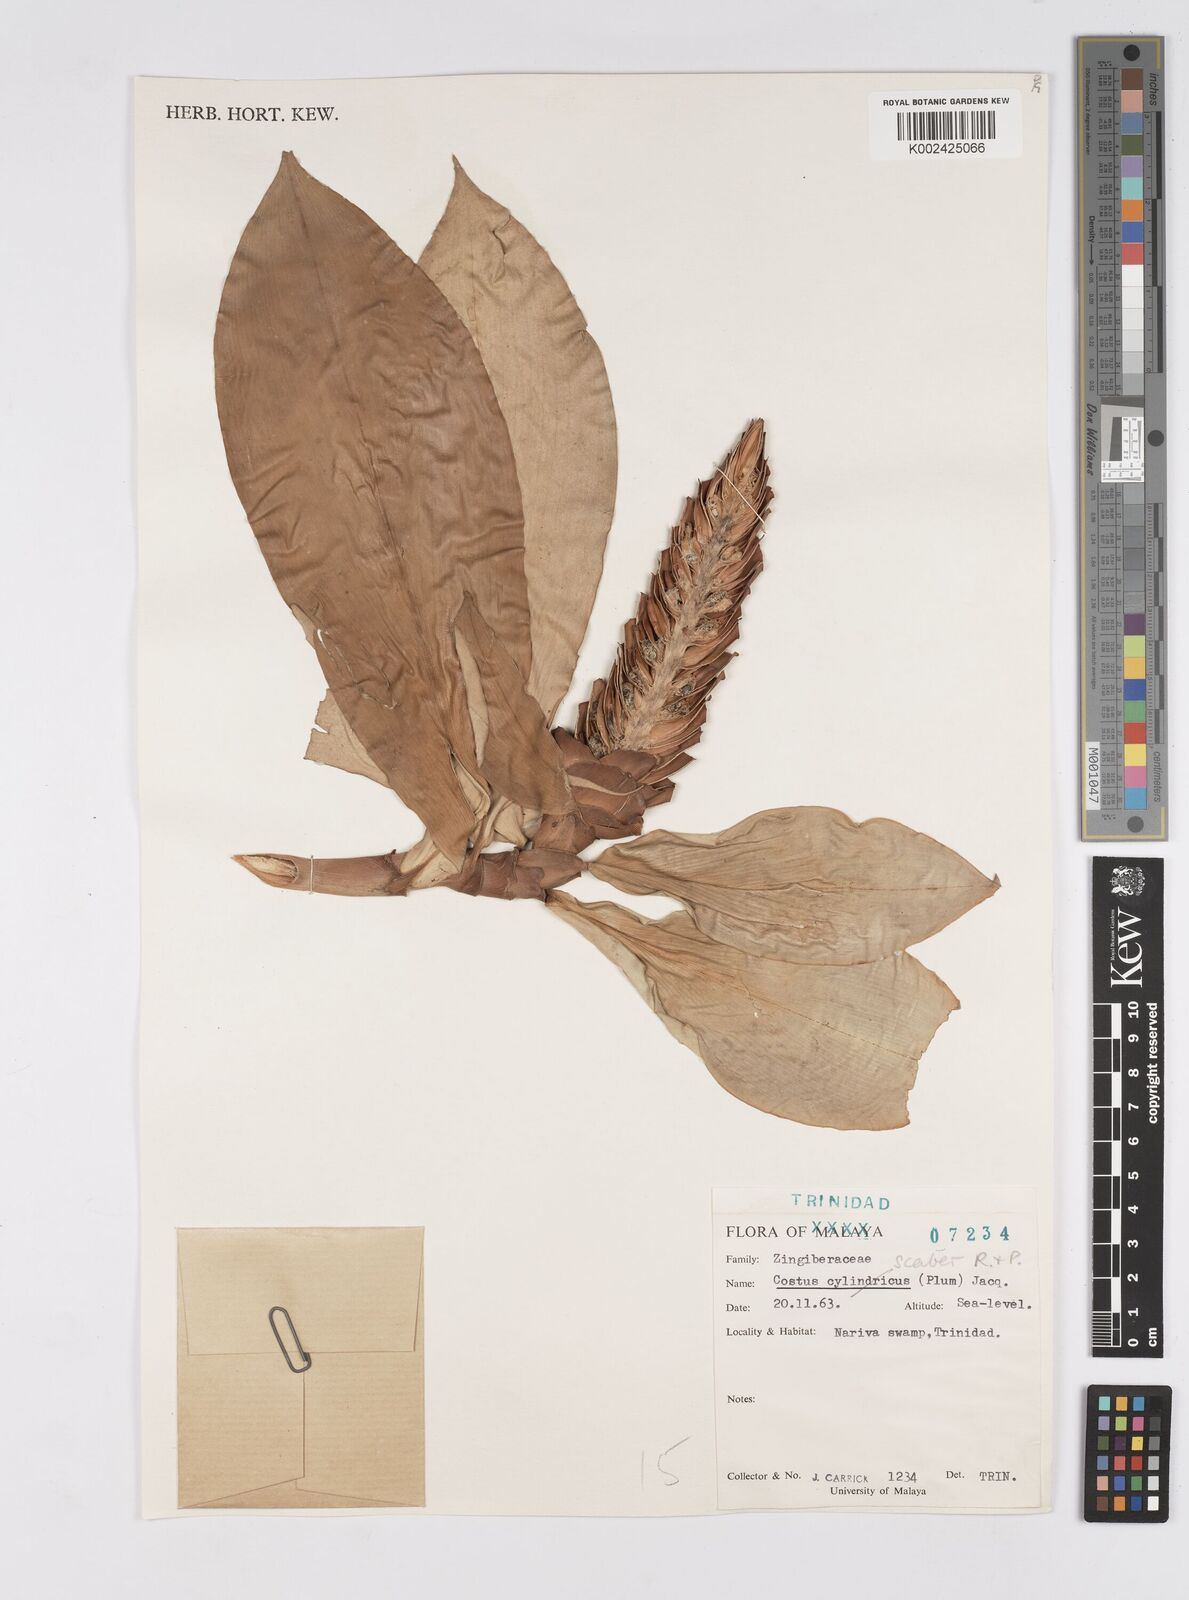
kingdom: Plantae
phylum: Tracheophyta
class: Liliopsida
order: Zingiberales
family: Costaceae
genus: Costus
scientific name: Costus scaber
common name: Spiral head ginger
